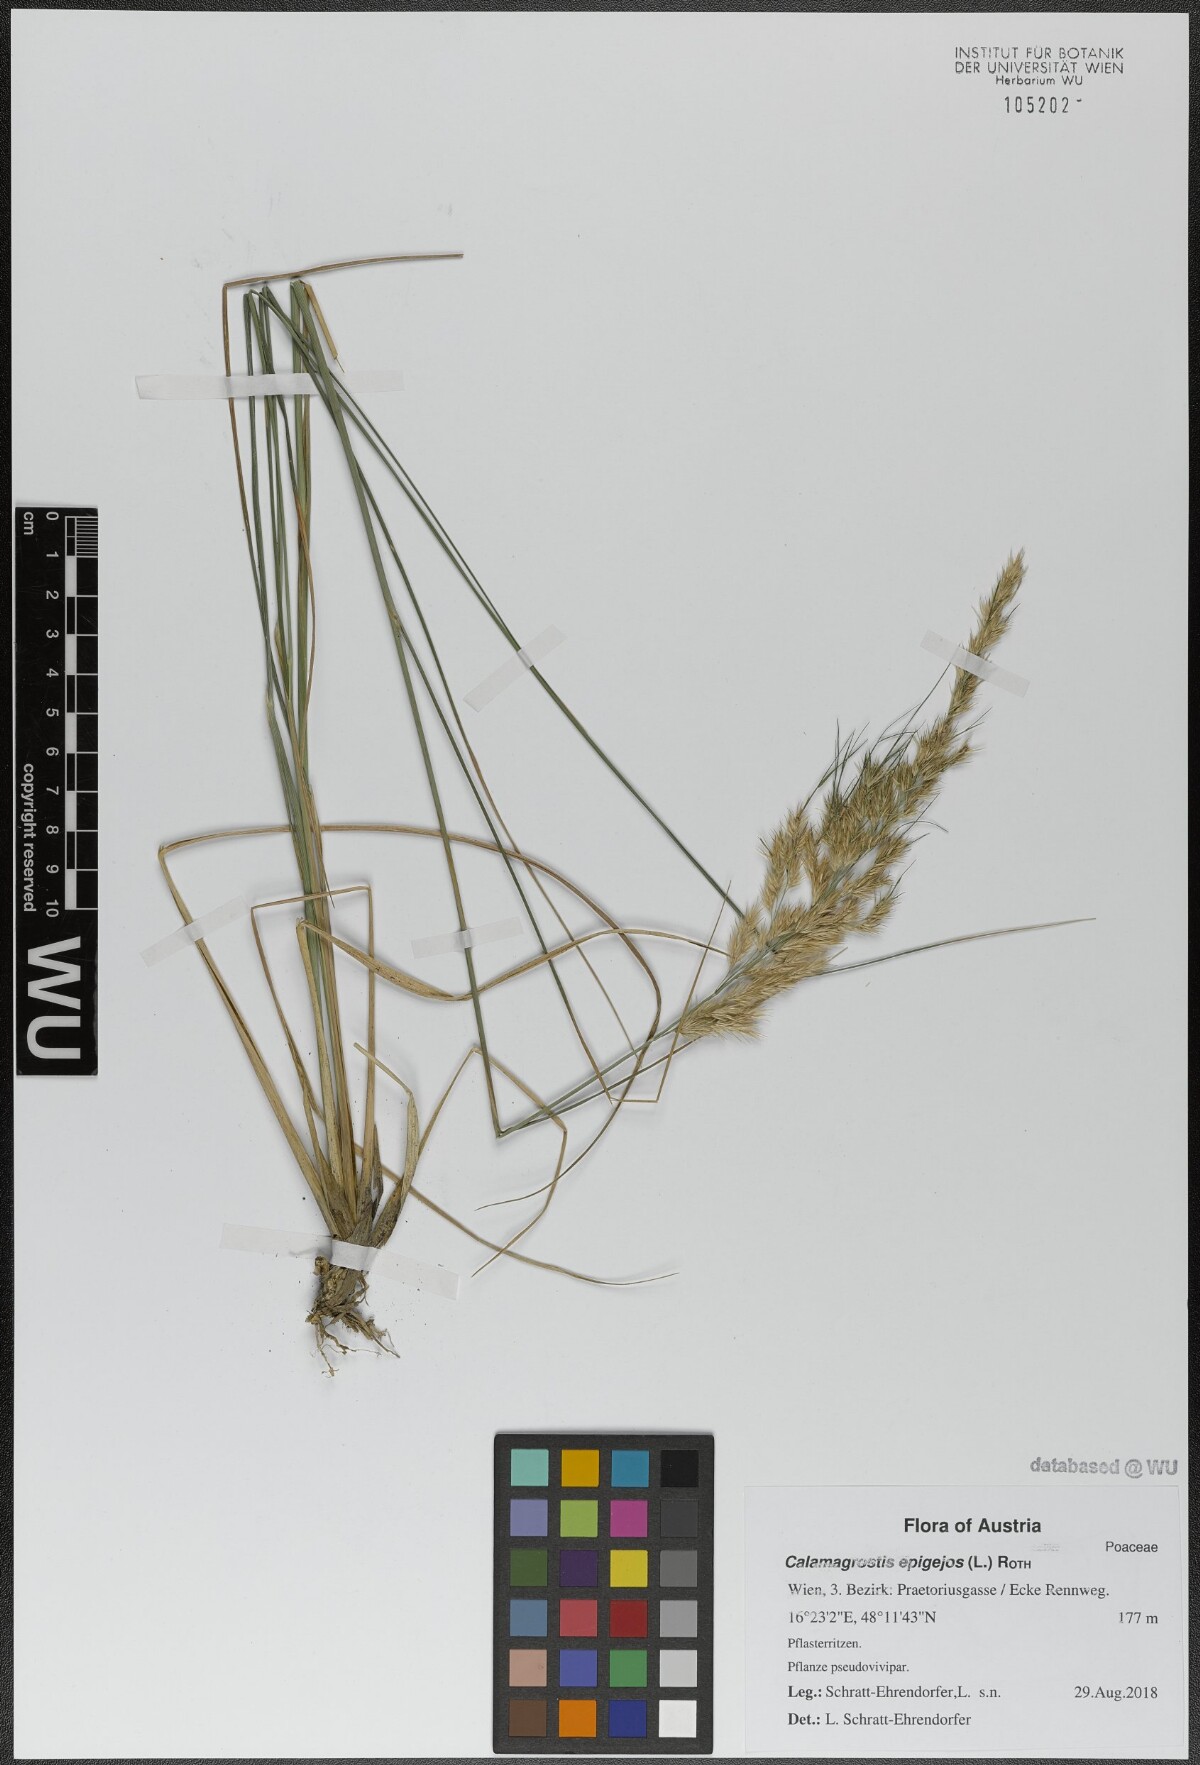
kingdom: Plantae
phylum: Tracheophyta
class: Liliopsida
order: Poales
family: Poaceae
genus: Calamagrostis
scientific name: Calamagrostis epigejos
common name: Wood small-reed
